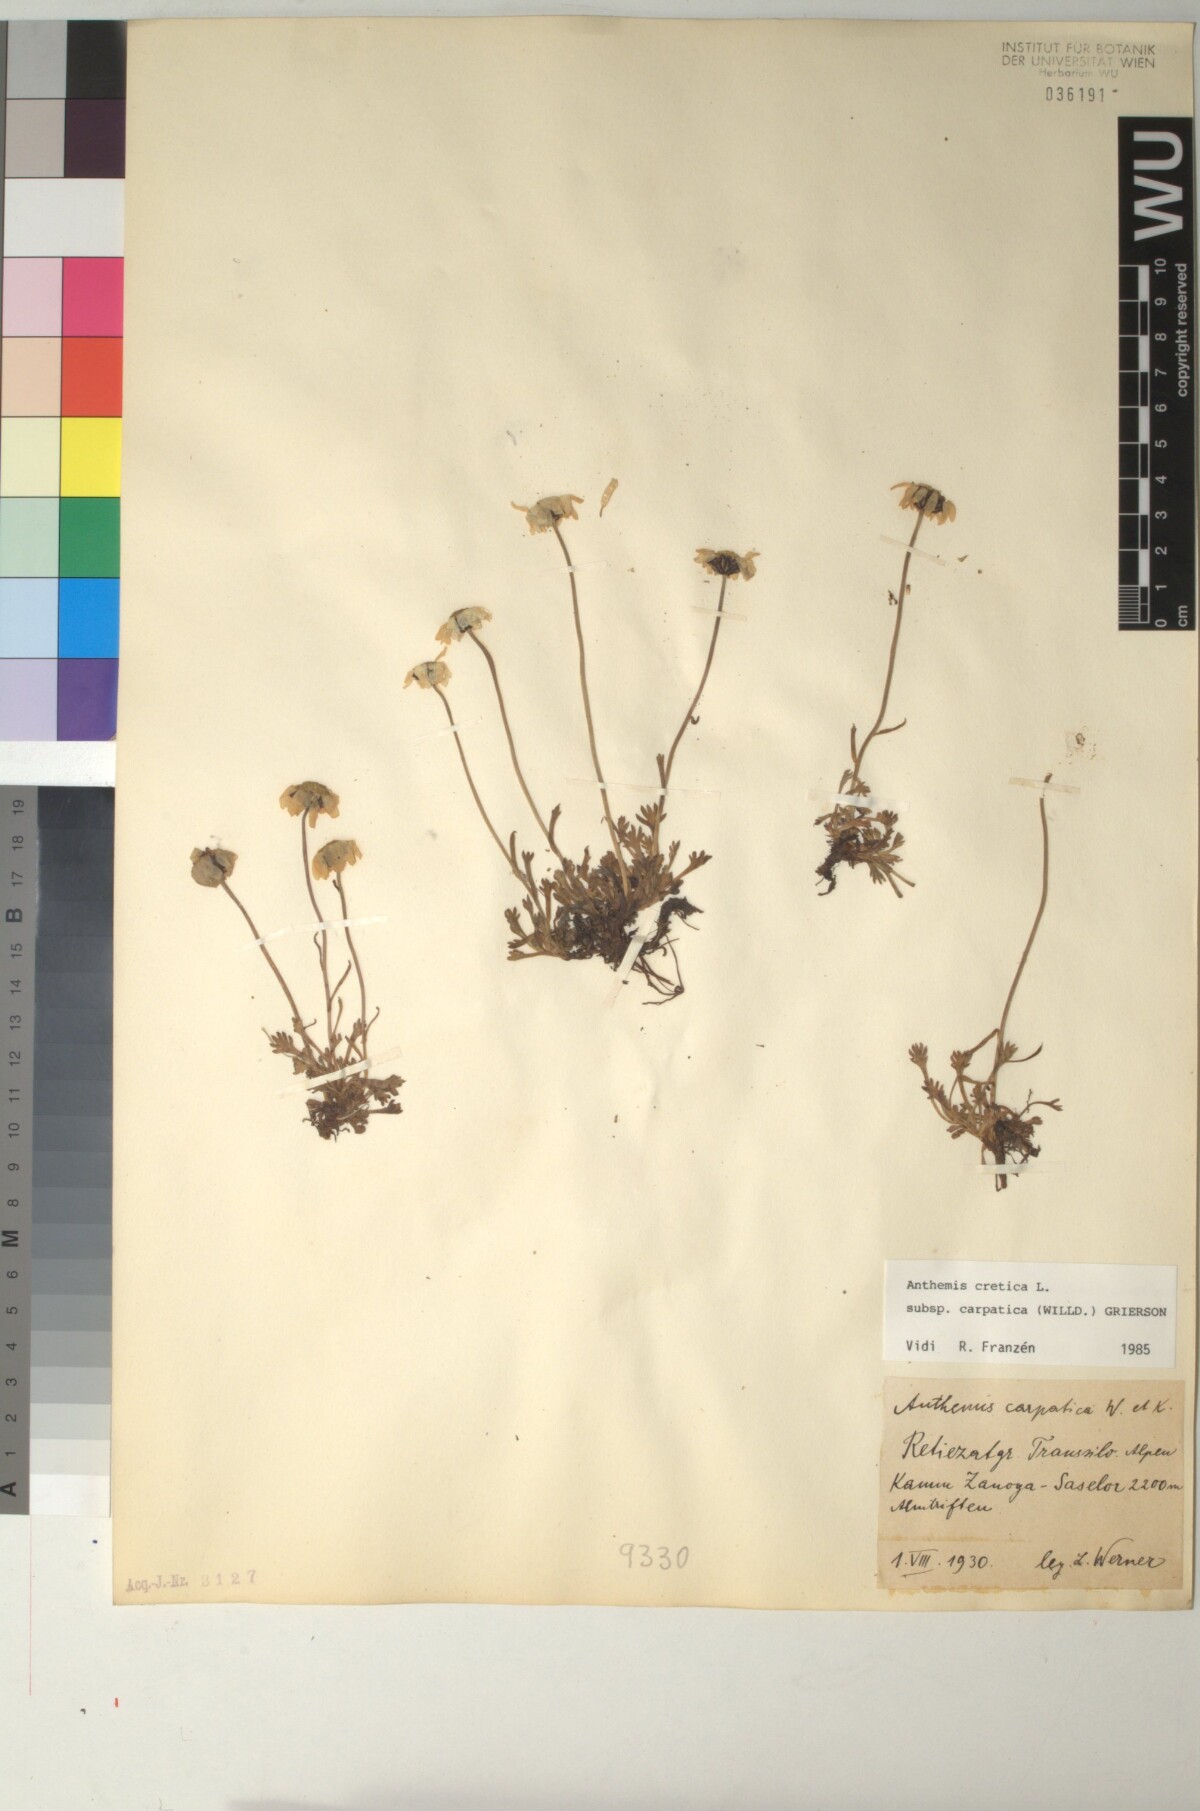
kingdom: Plantae
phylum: Tracheophyta
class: Magnoliopsida
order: Asterales
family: Asteraceae
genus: Anthemis
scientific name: Anthemis cretica
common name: Mountain dog-daisy
